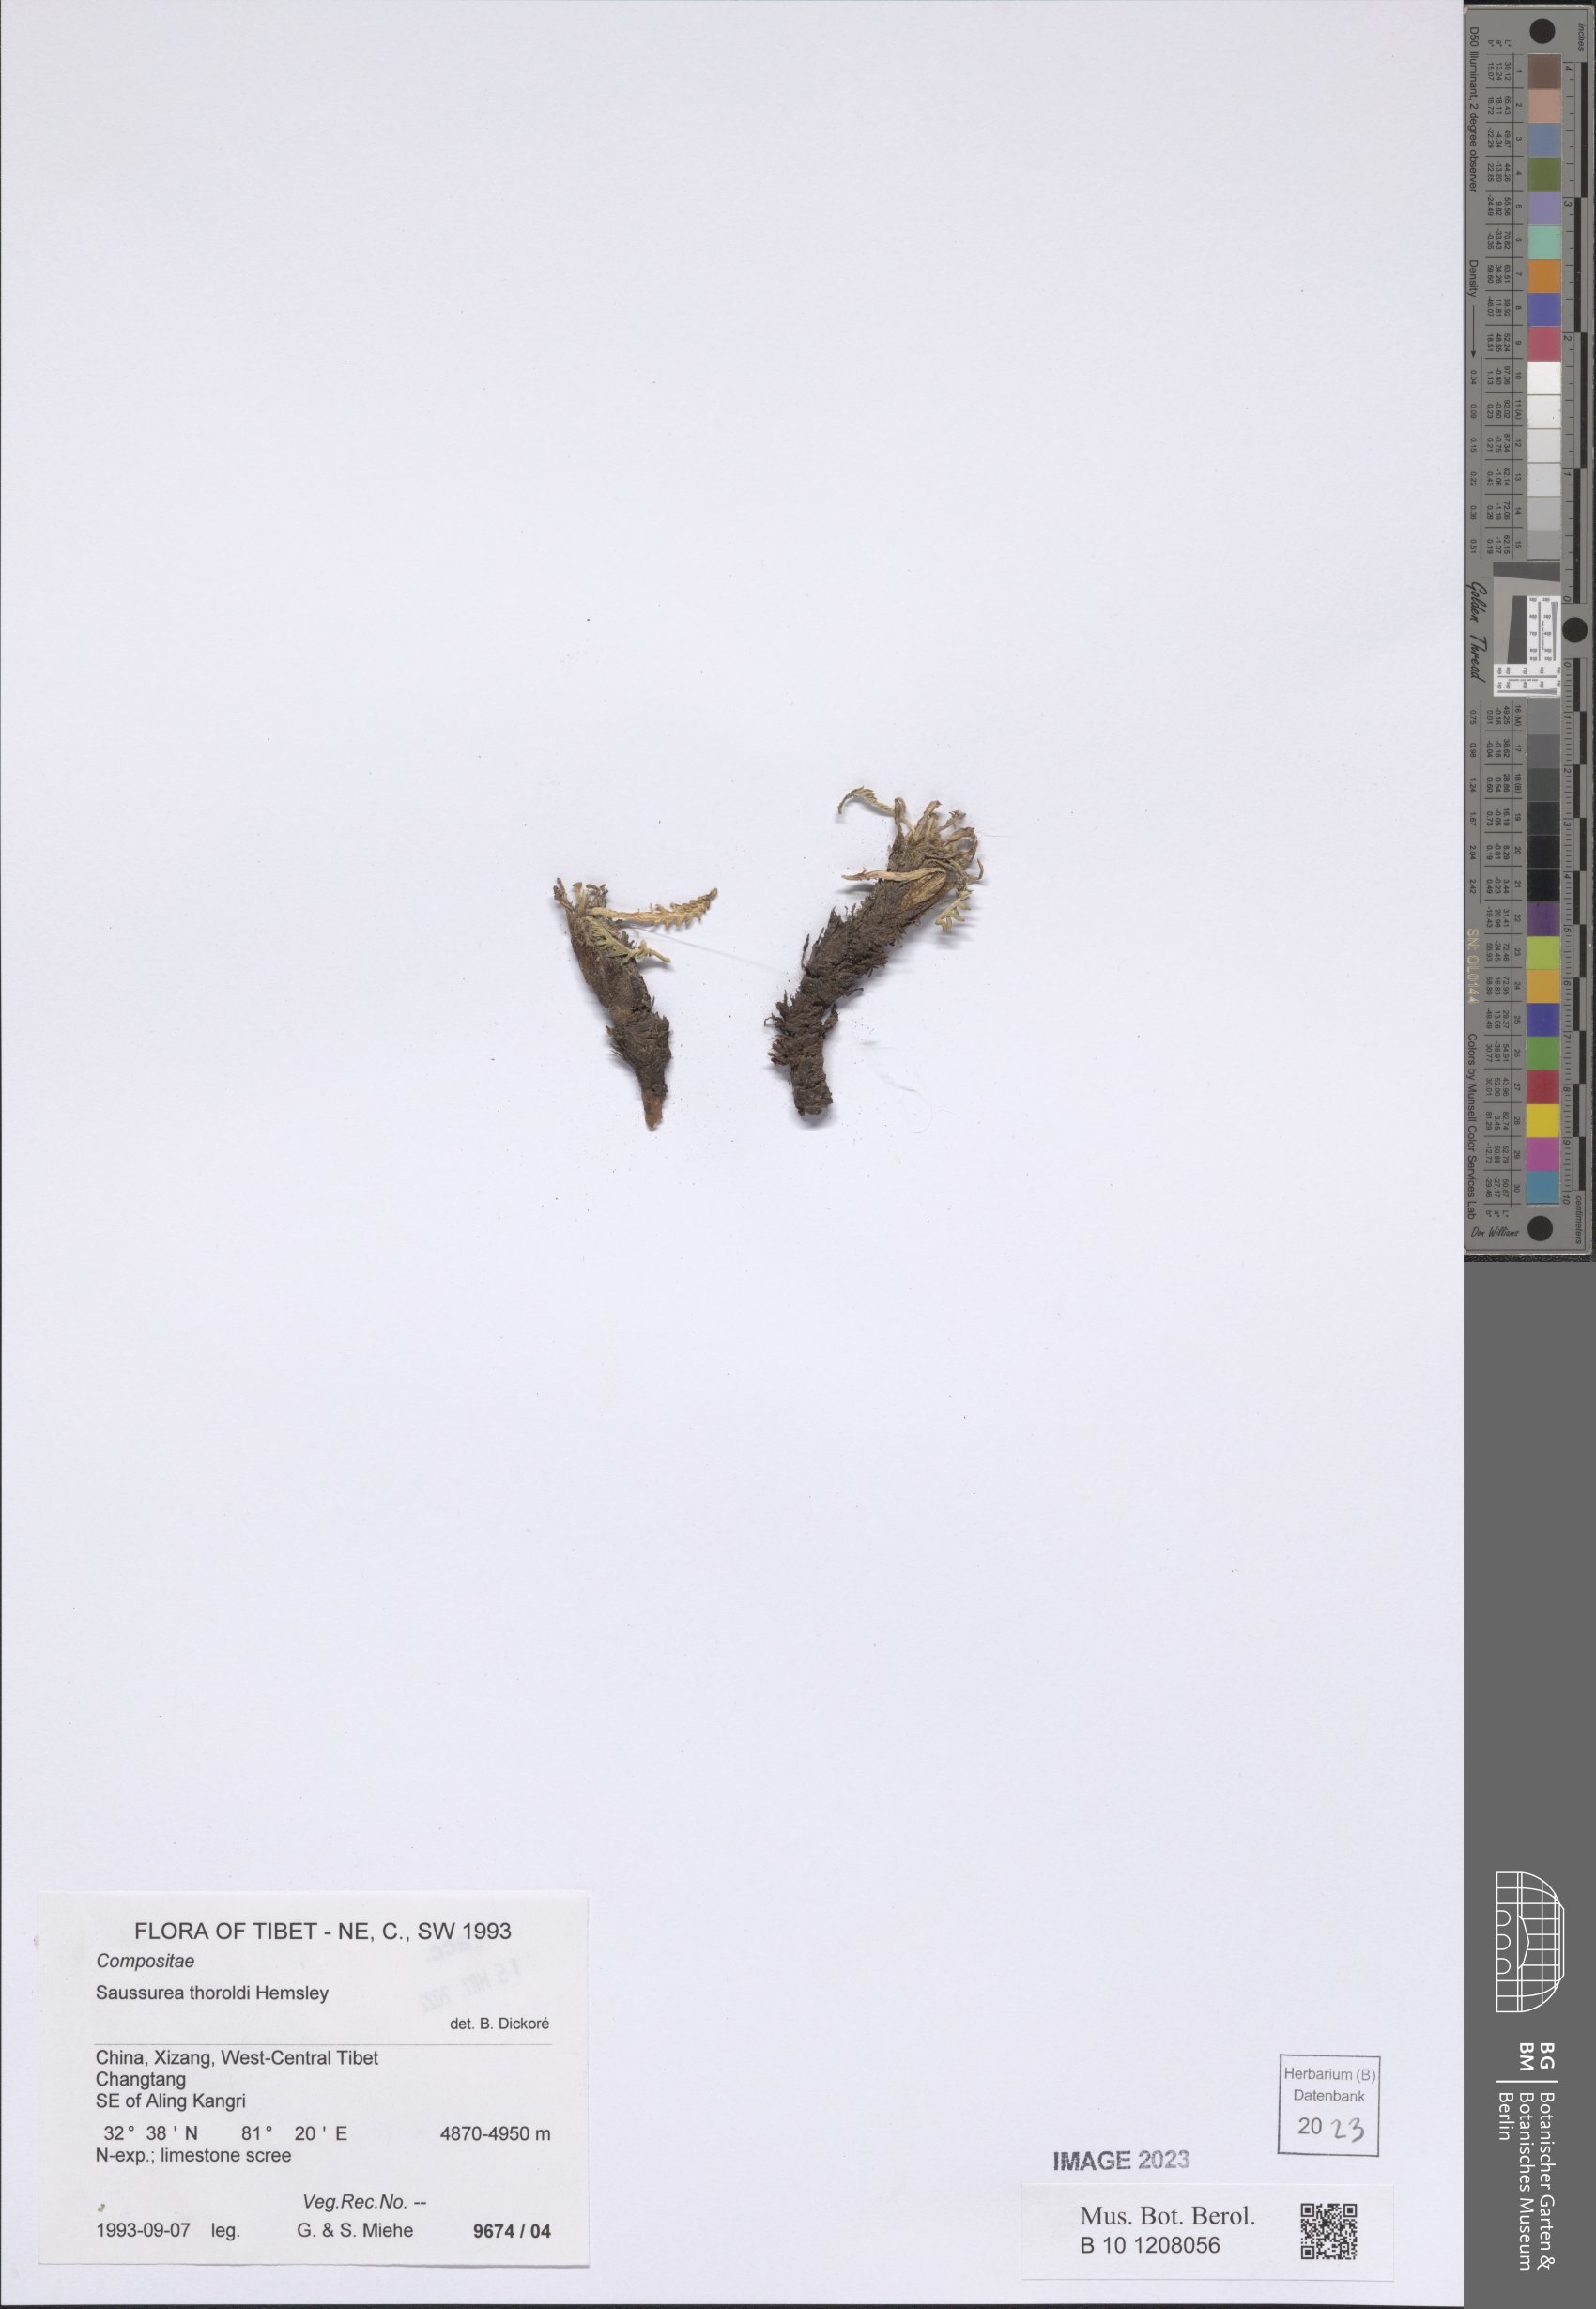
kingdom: Plantae
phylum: Tracheophyta
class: Magnoliopsida
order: Asterales
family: Asteraceae
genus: Saussurea
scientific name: Saussurea thoroldii
